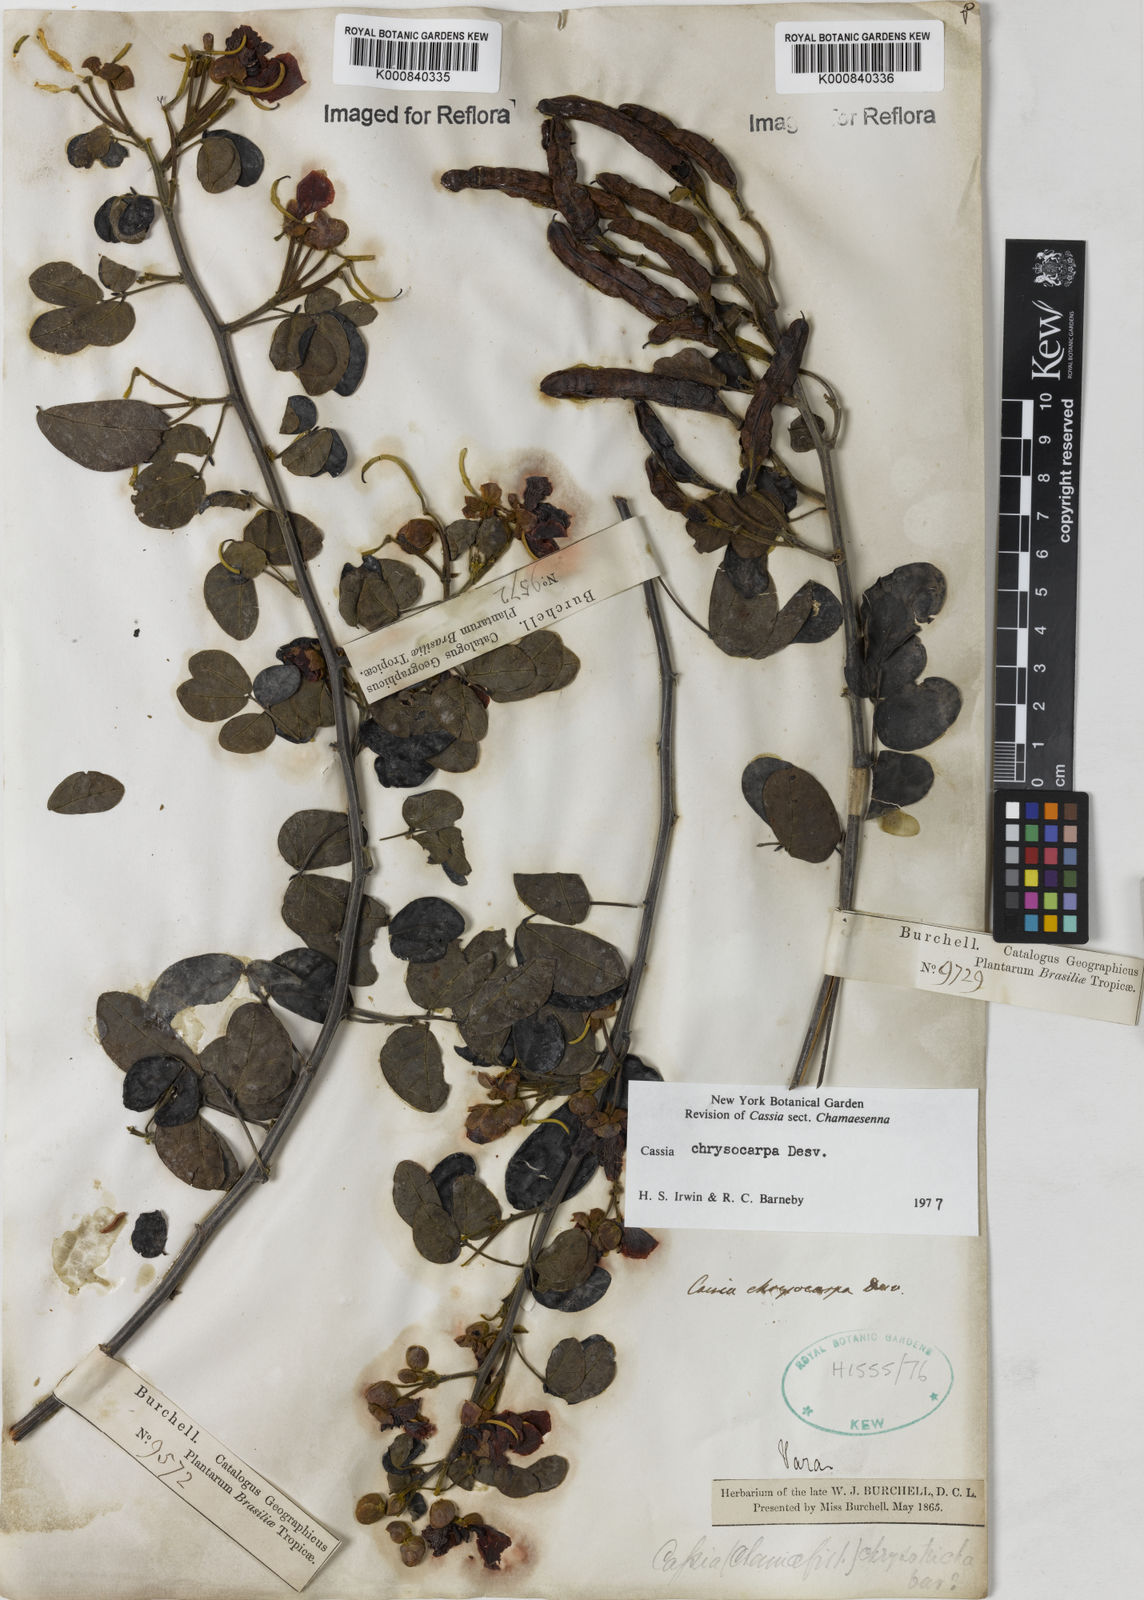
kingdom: Plantae
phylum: Tracheophyta
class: Magnoliopsida
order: Fabales
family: Fabaceae
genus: Senna
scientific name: Senna chrysocarpa
